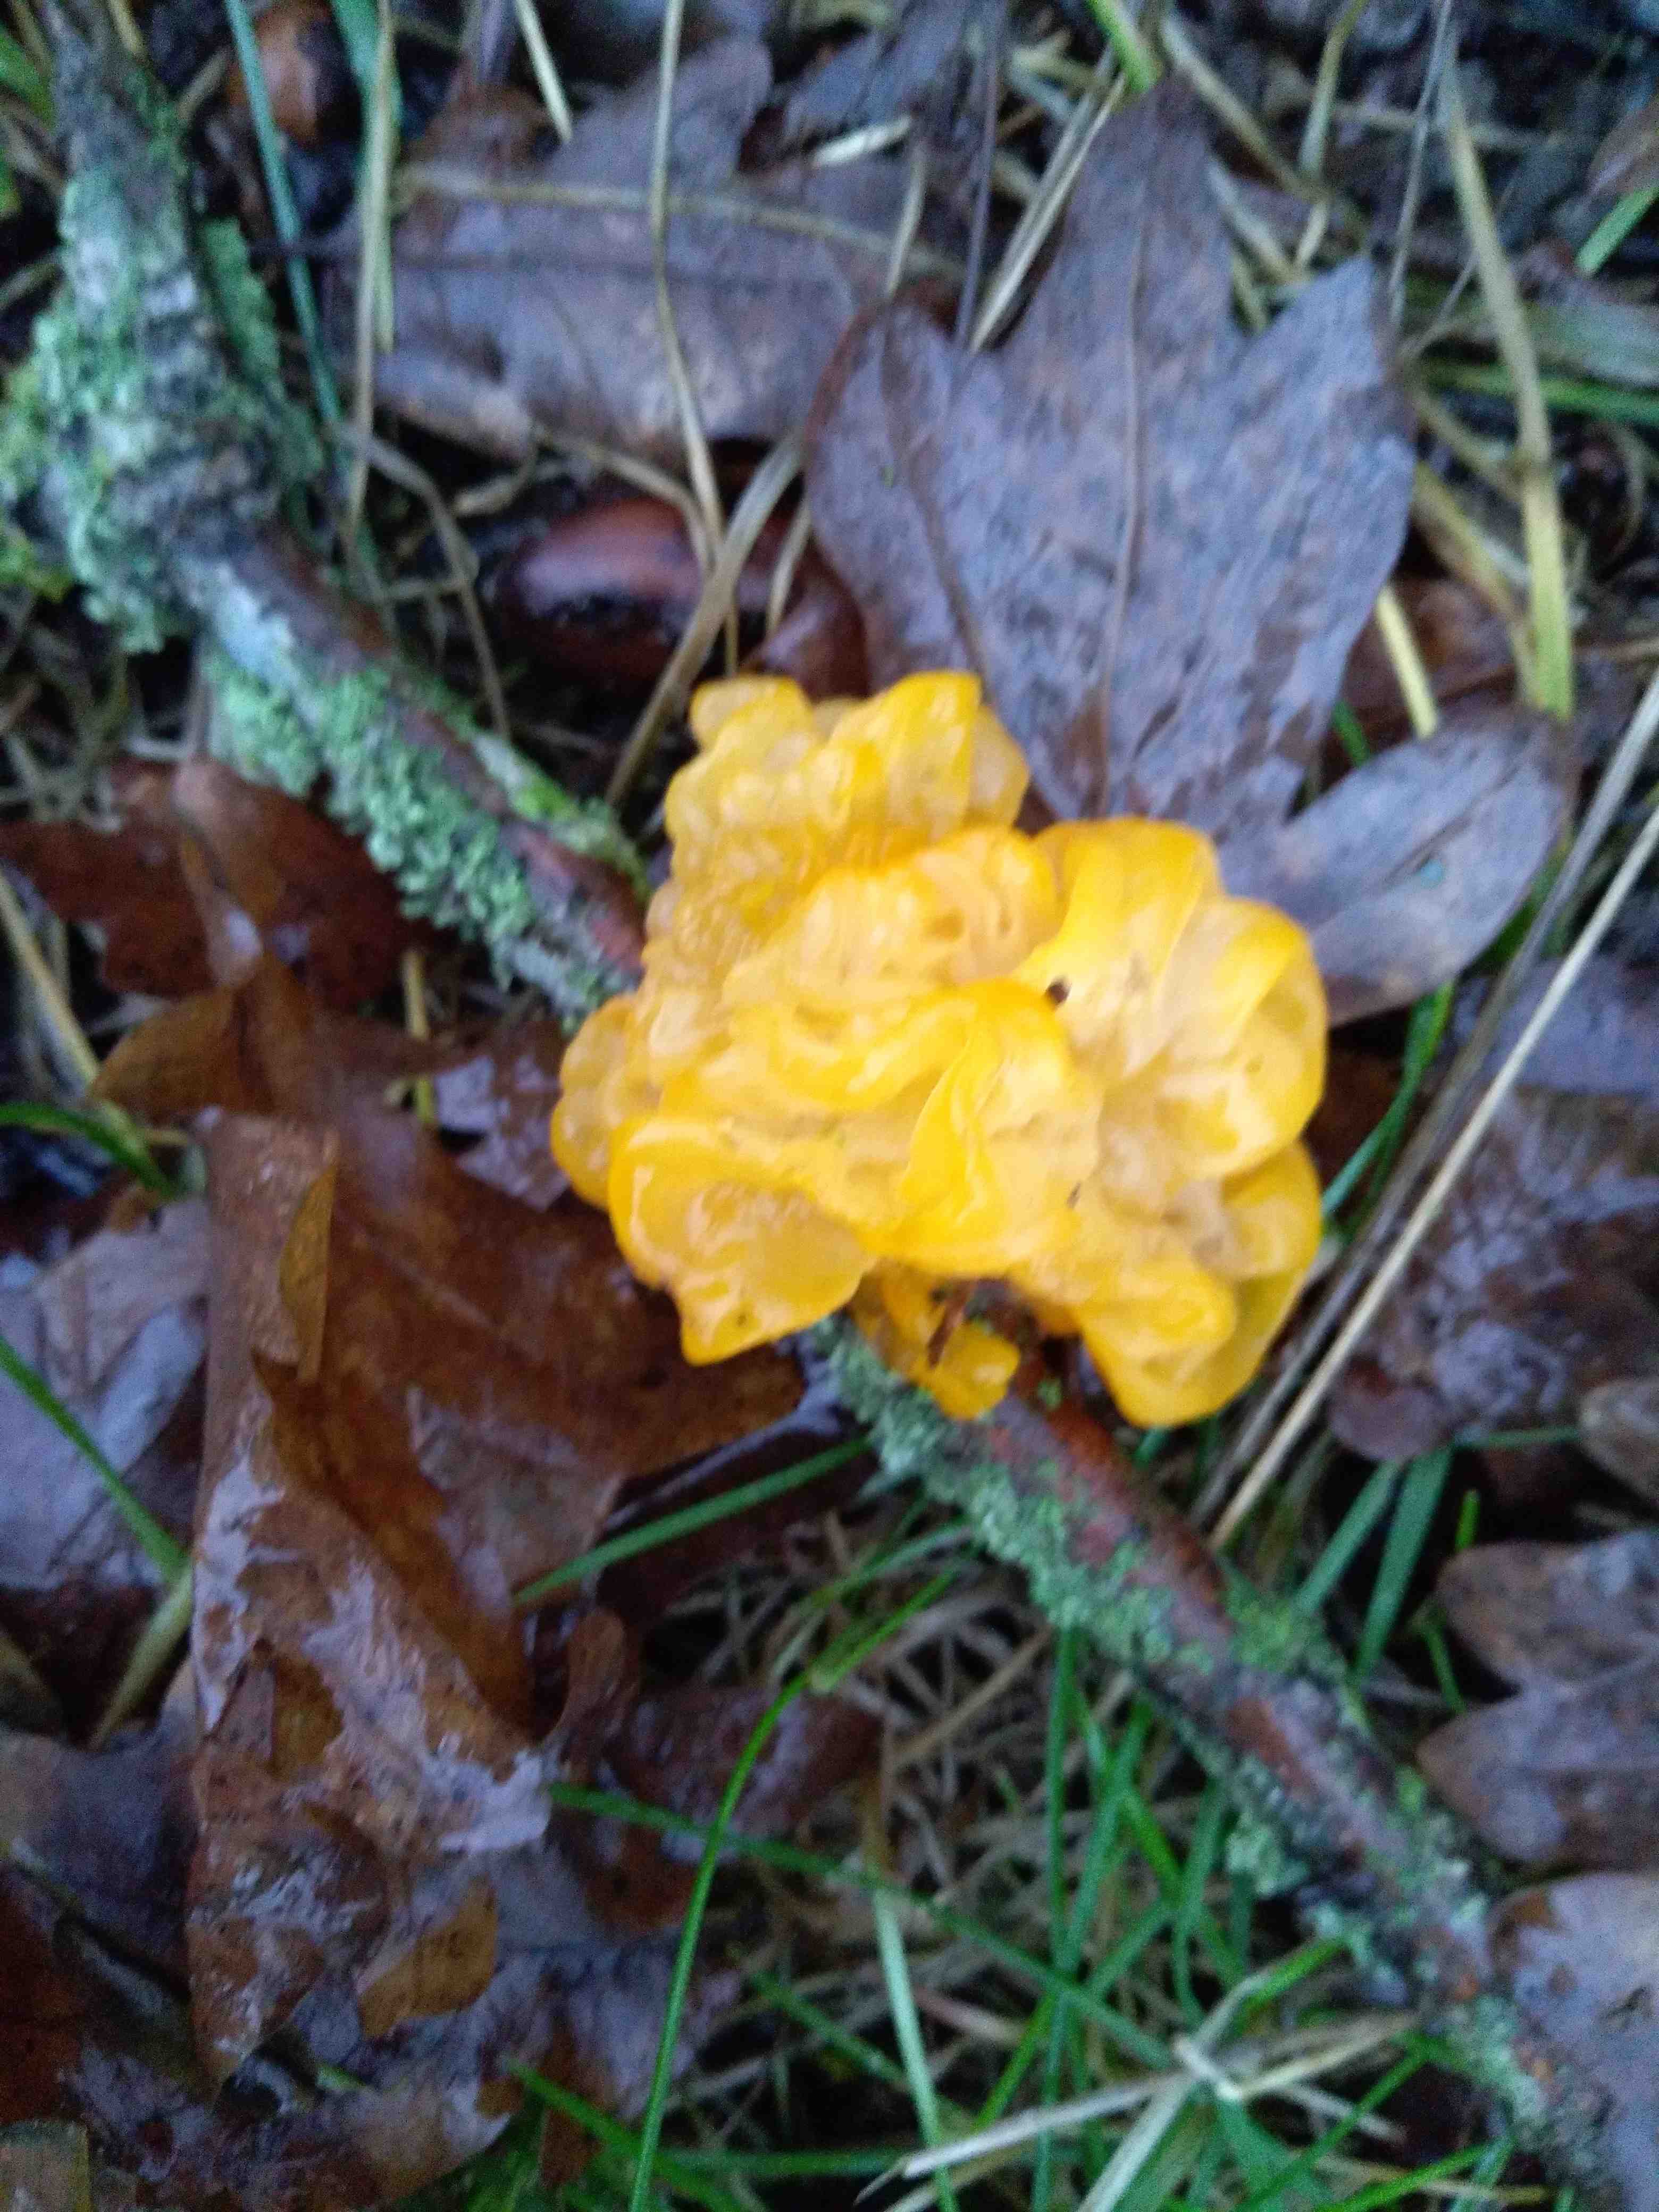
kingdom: Fungi
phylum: Basidiomycota
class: Tremellomycetes
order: Tremellales
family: Tremellaceae
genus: Tremella
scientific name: Tremella mesenterica
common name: gul bævresvamp
